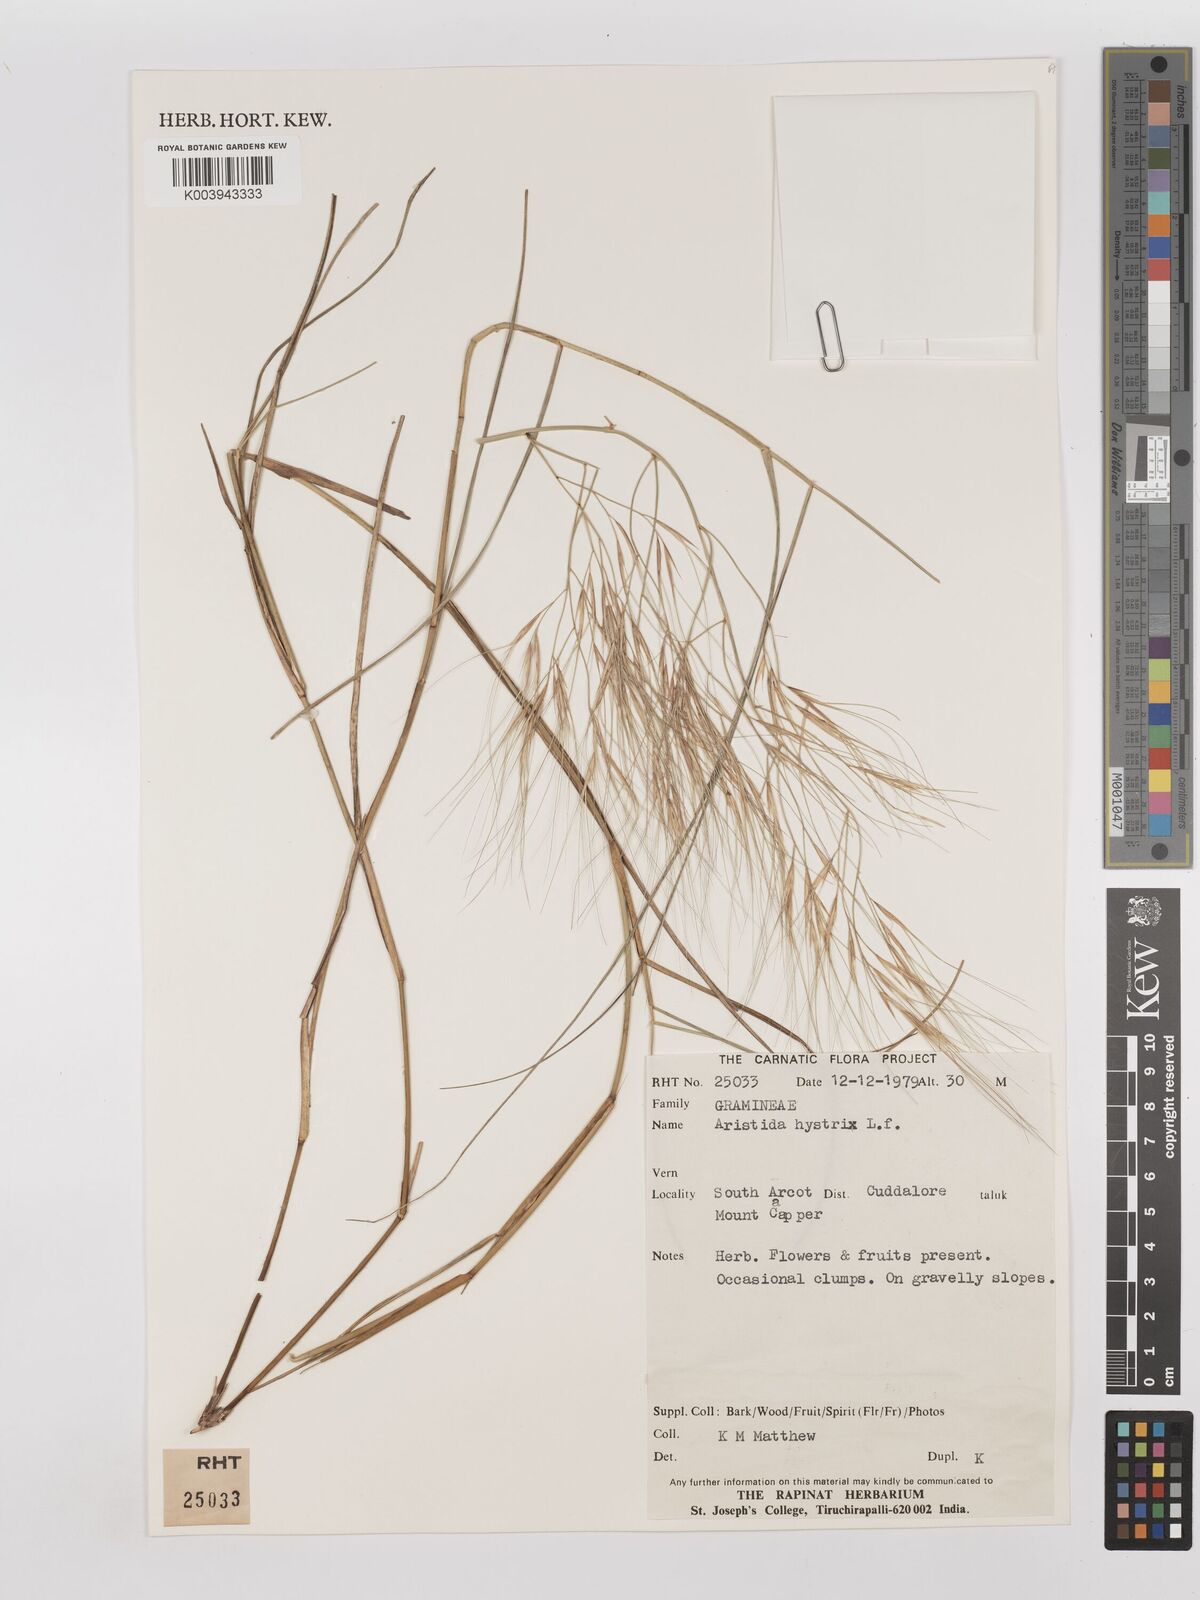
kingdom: Plantae
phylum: Tracheophyta
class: Liliopsida
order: Poales
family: Poaceae
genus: Aristida
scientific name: Aristida hystrix
